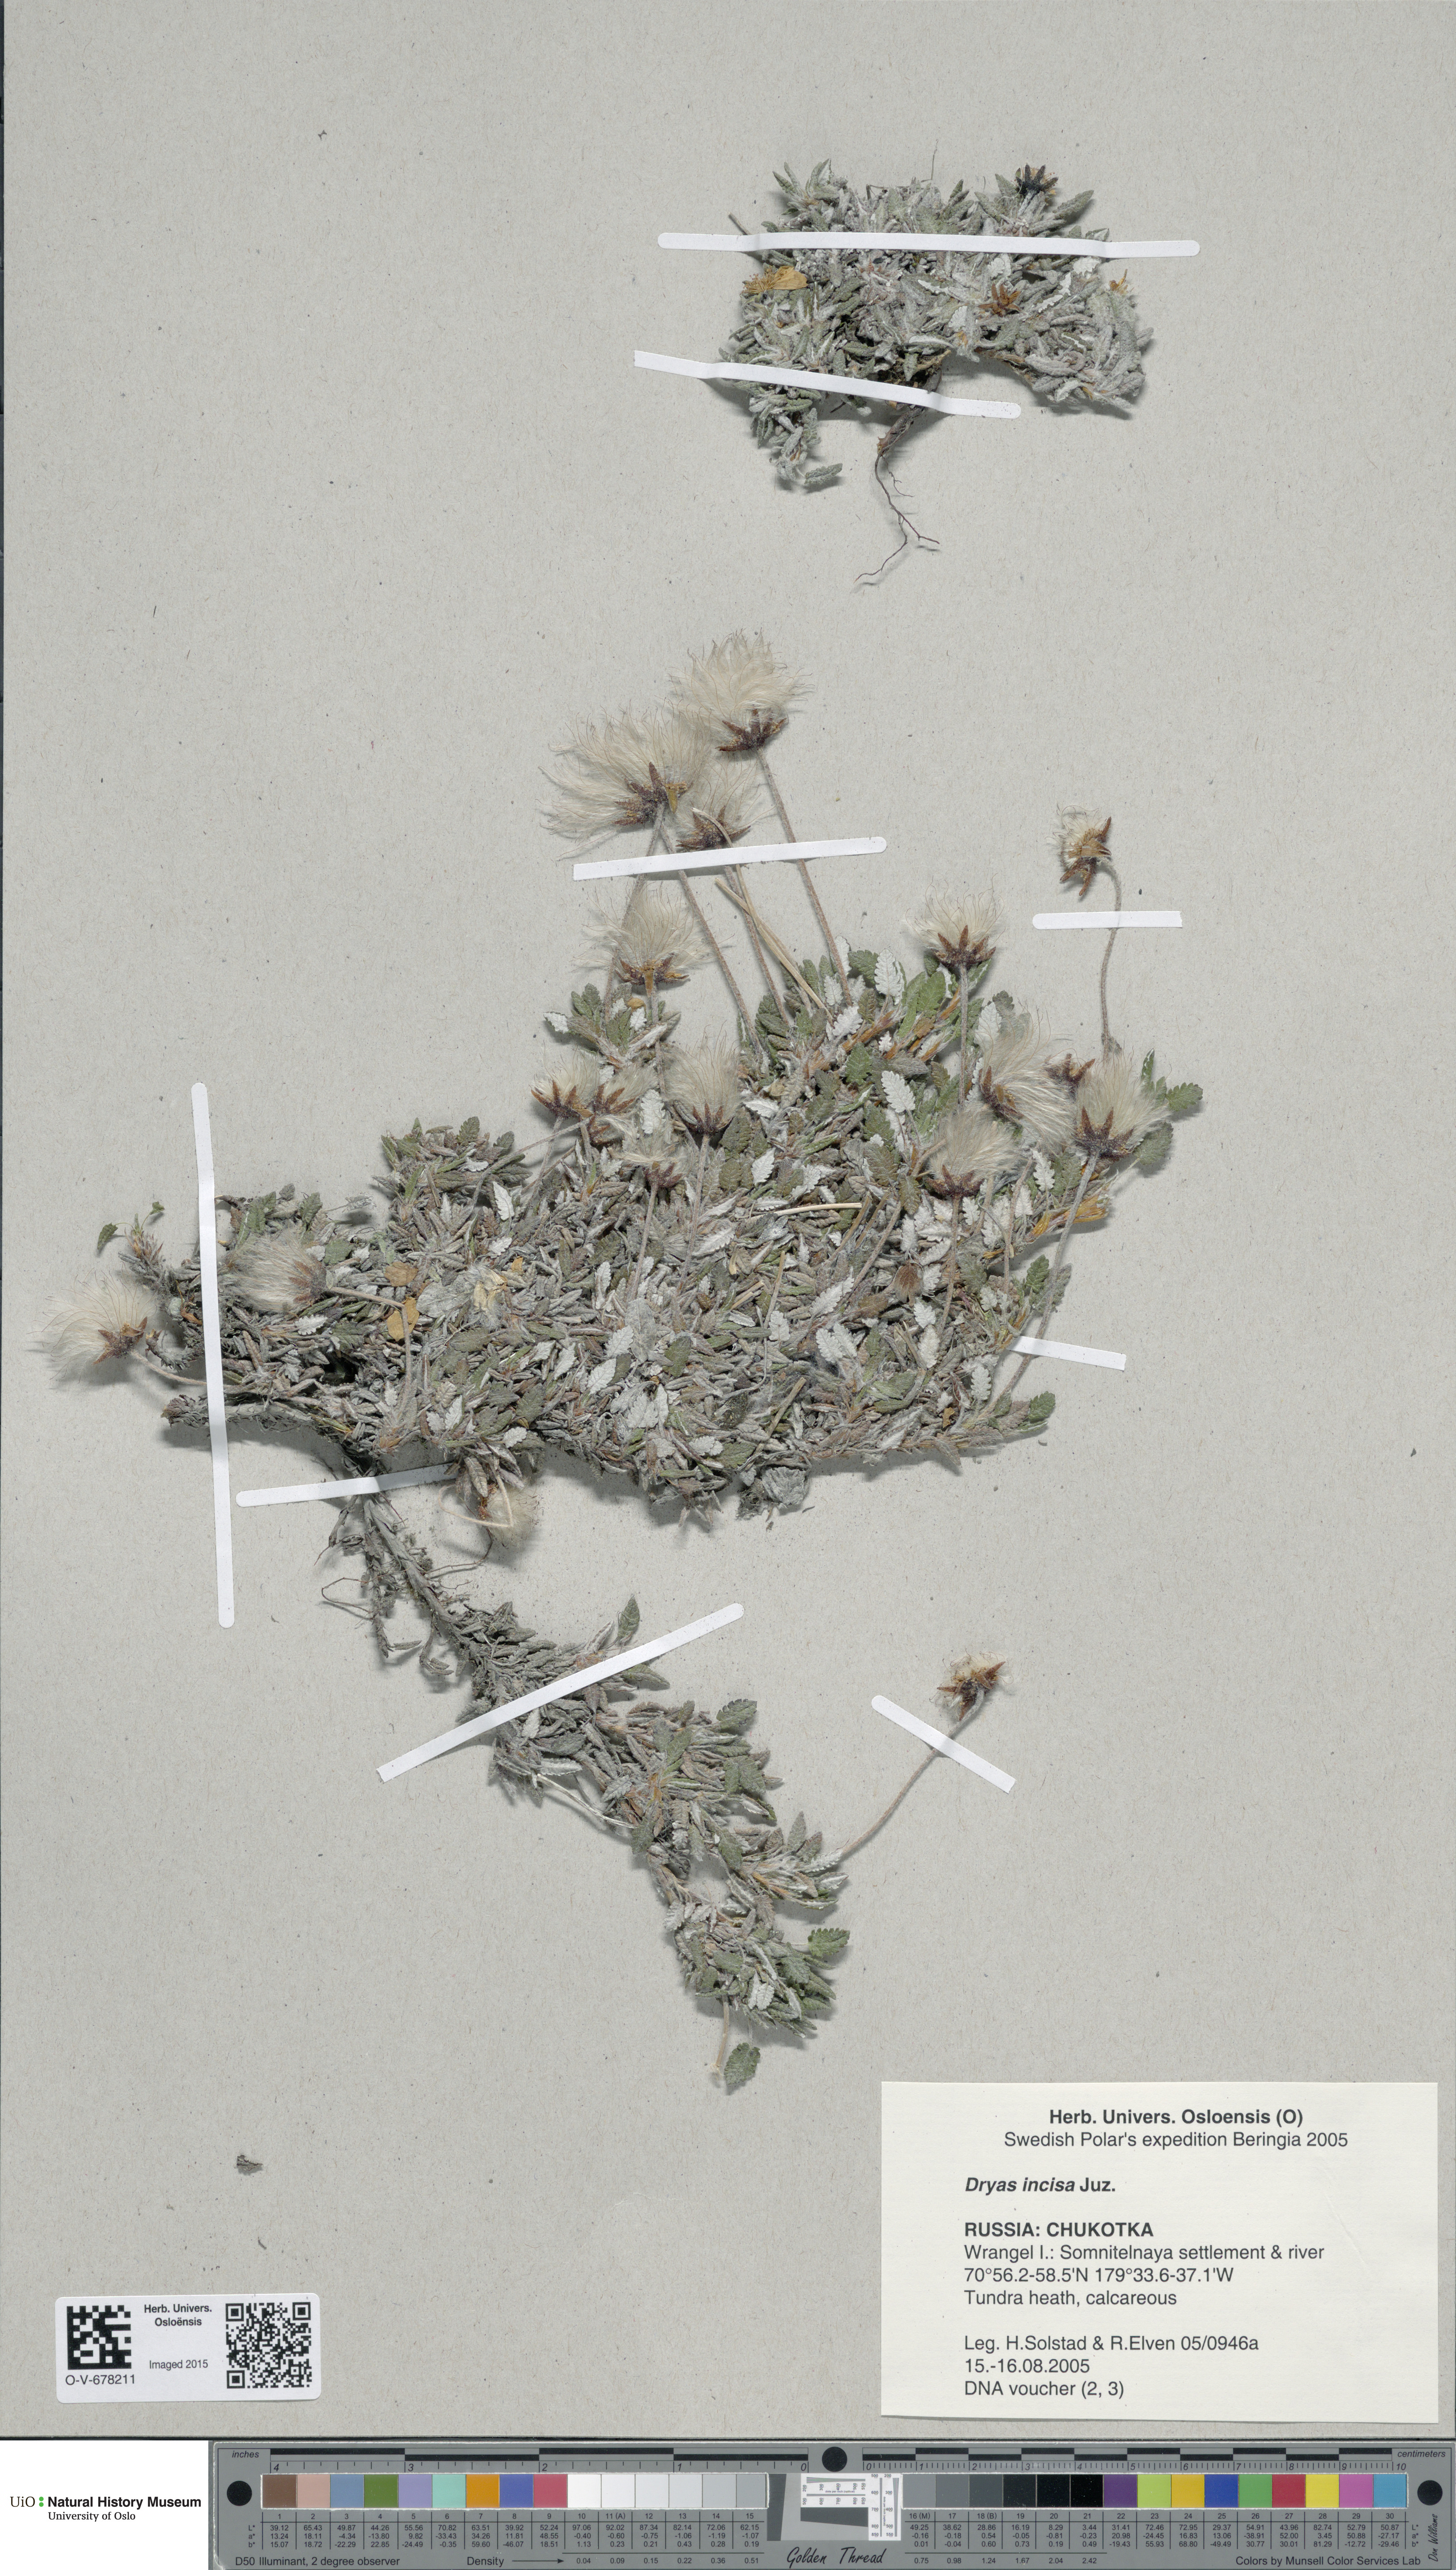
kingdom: Plantae
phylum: Tracheophyta
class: Magnoliopsida
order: Rosales
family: Rosaceae
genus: Dryas
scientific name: Dryas octopetala
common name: Eight-petal mountain-avens
